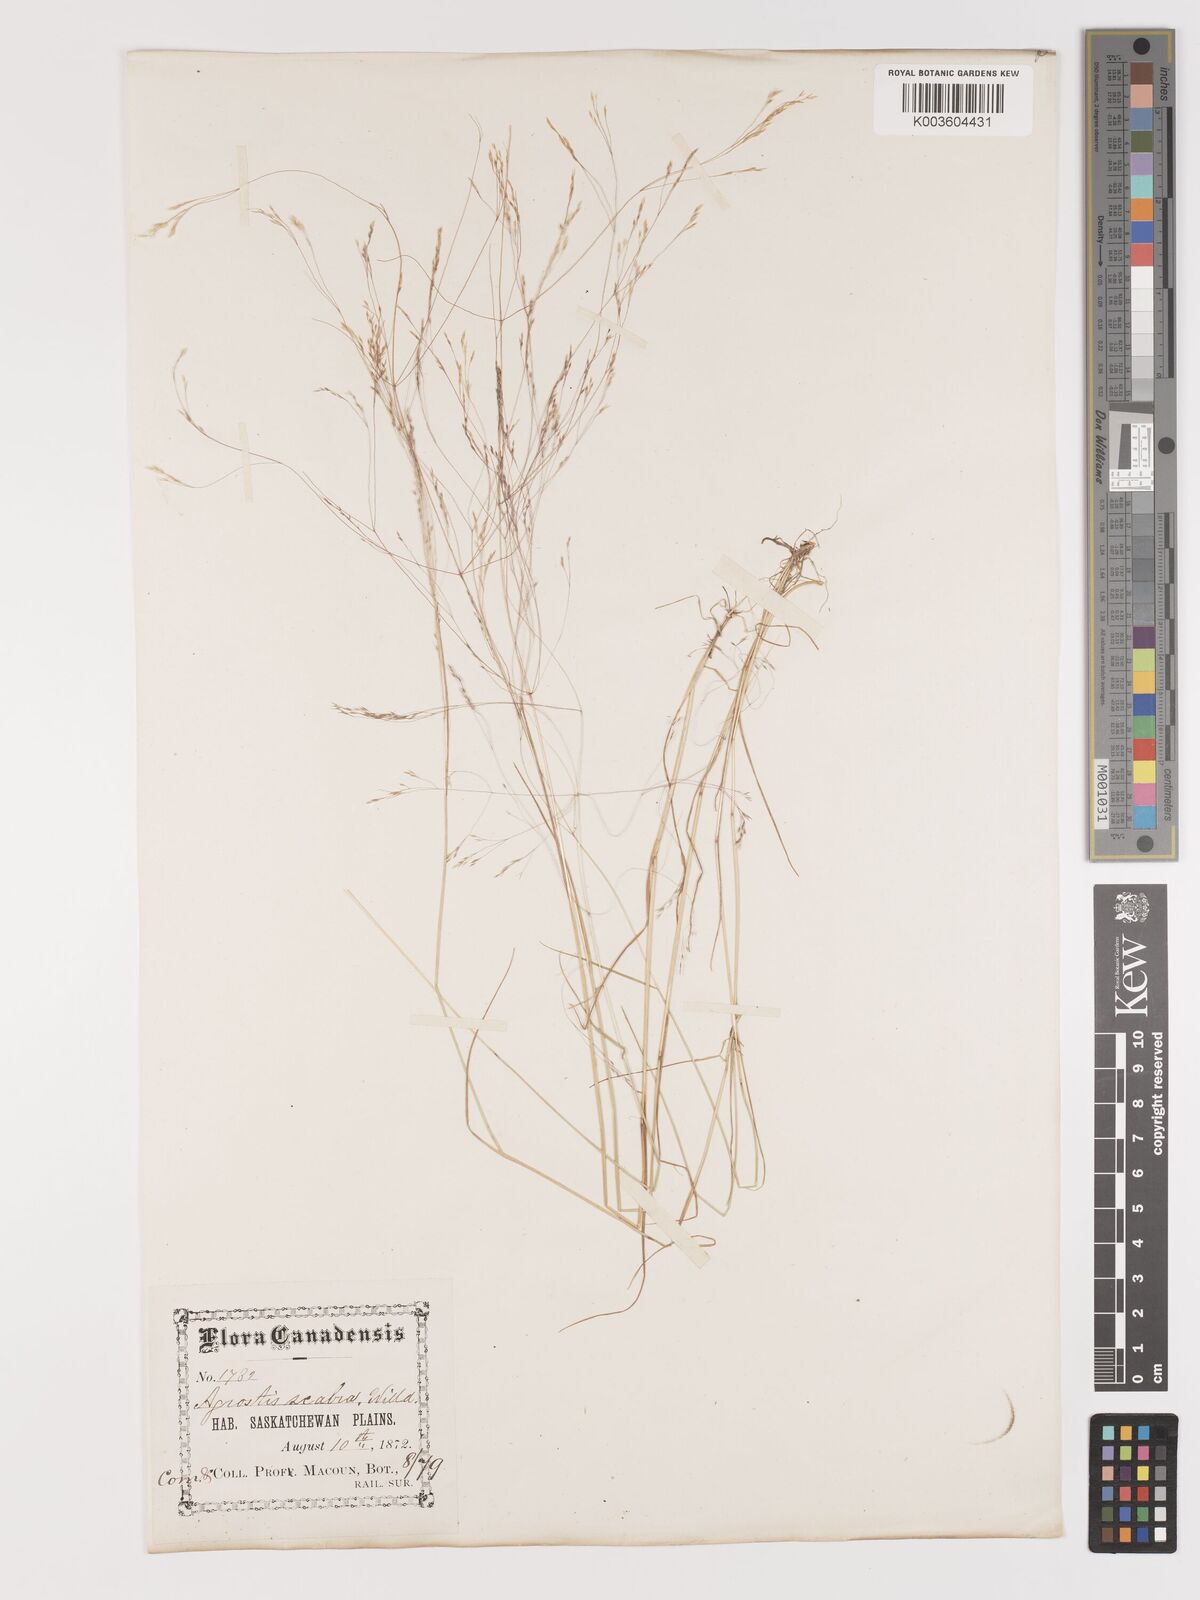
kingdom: Plantae
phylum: Tracheophyta
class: Liliopsida
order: Poales
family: Poaceae
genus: Agrostis
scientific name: Agrostis hyemalis
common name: Small bent
